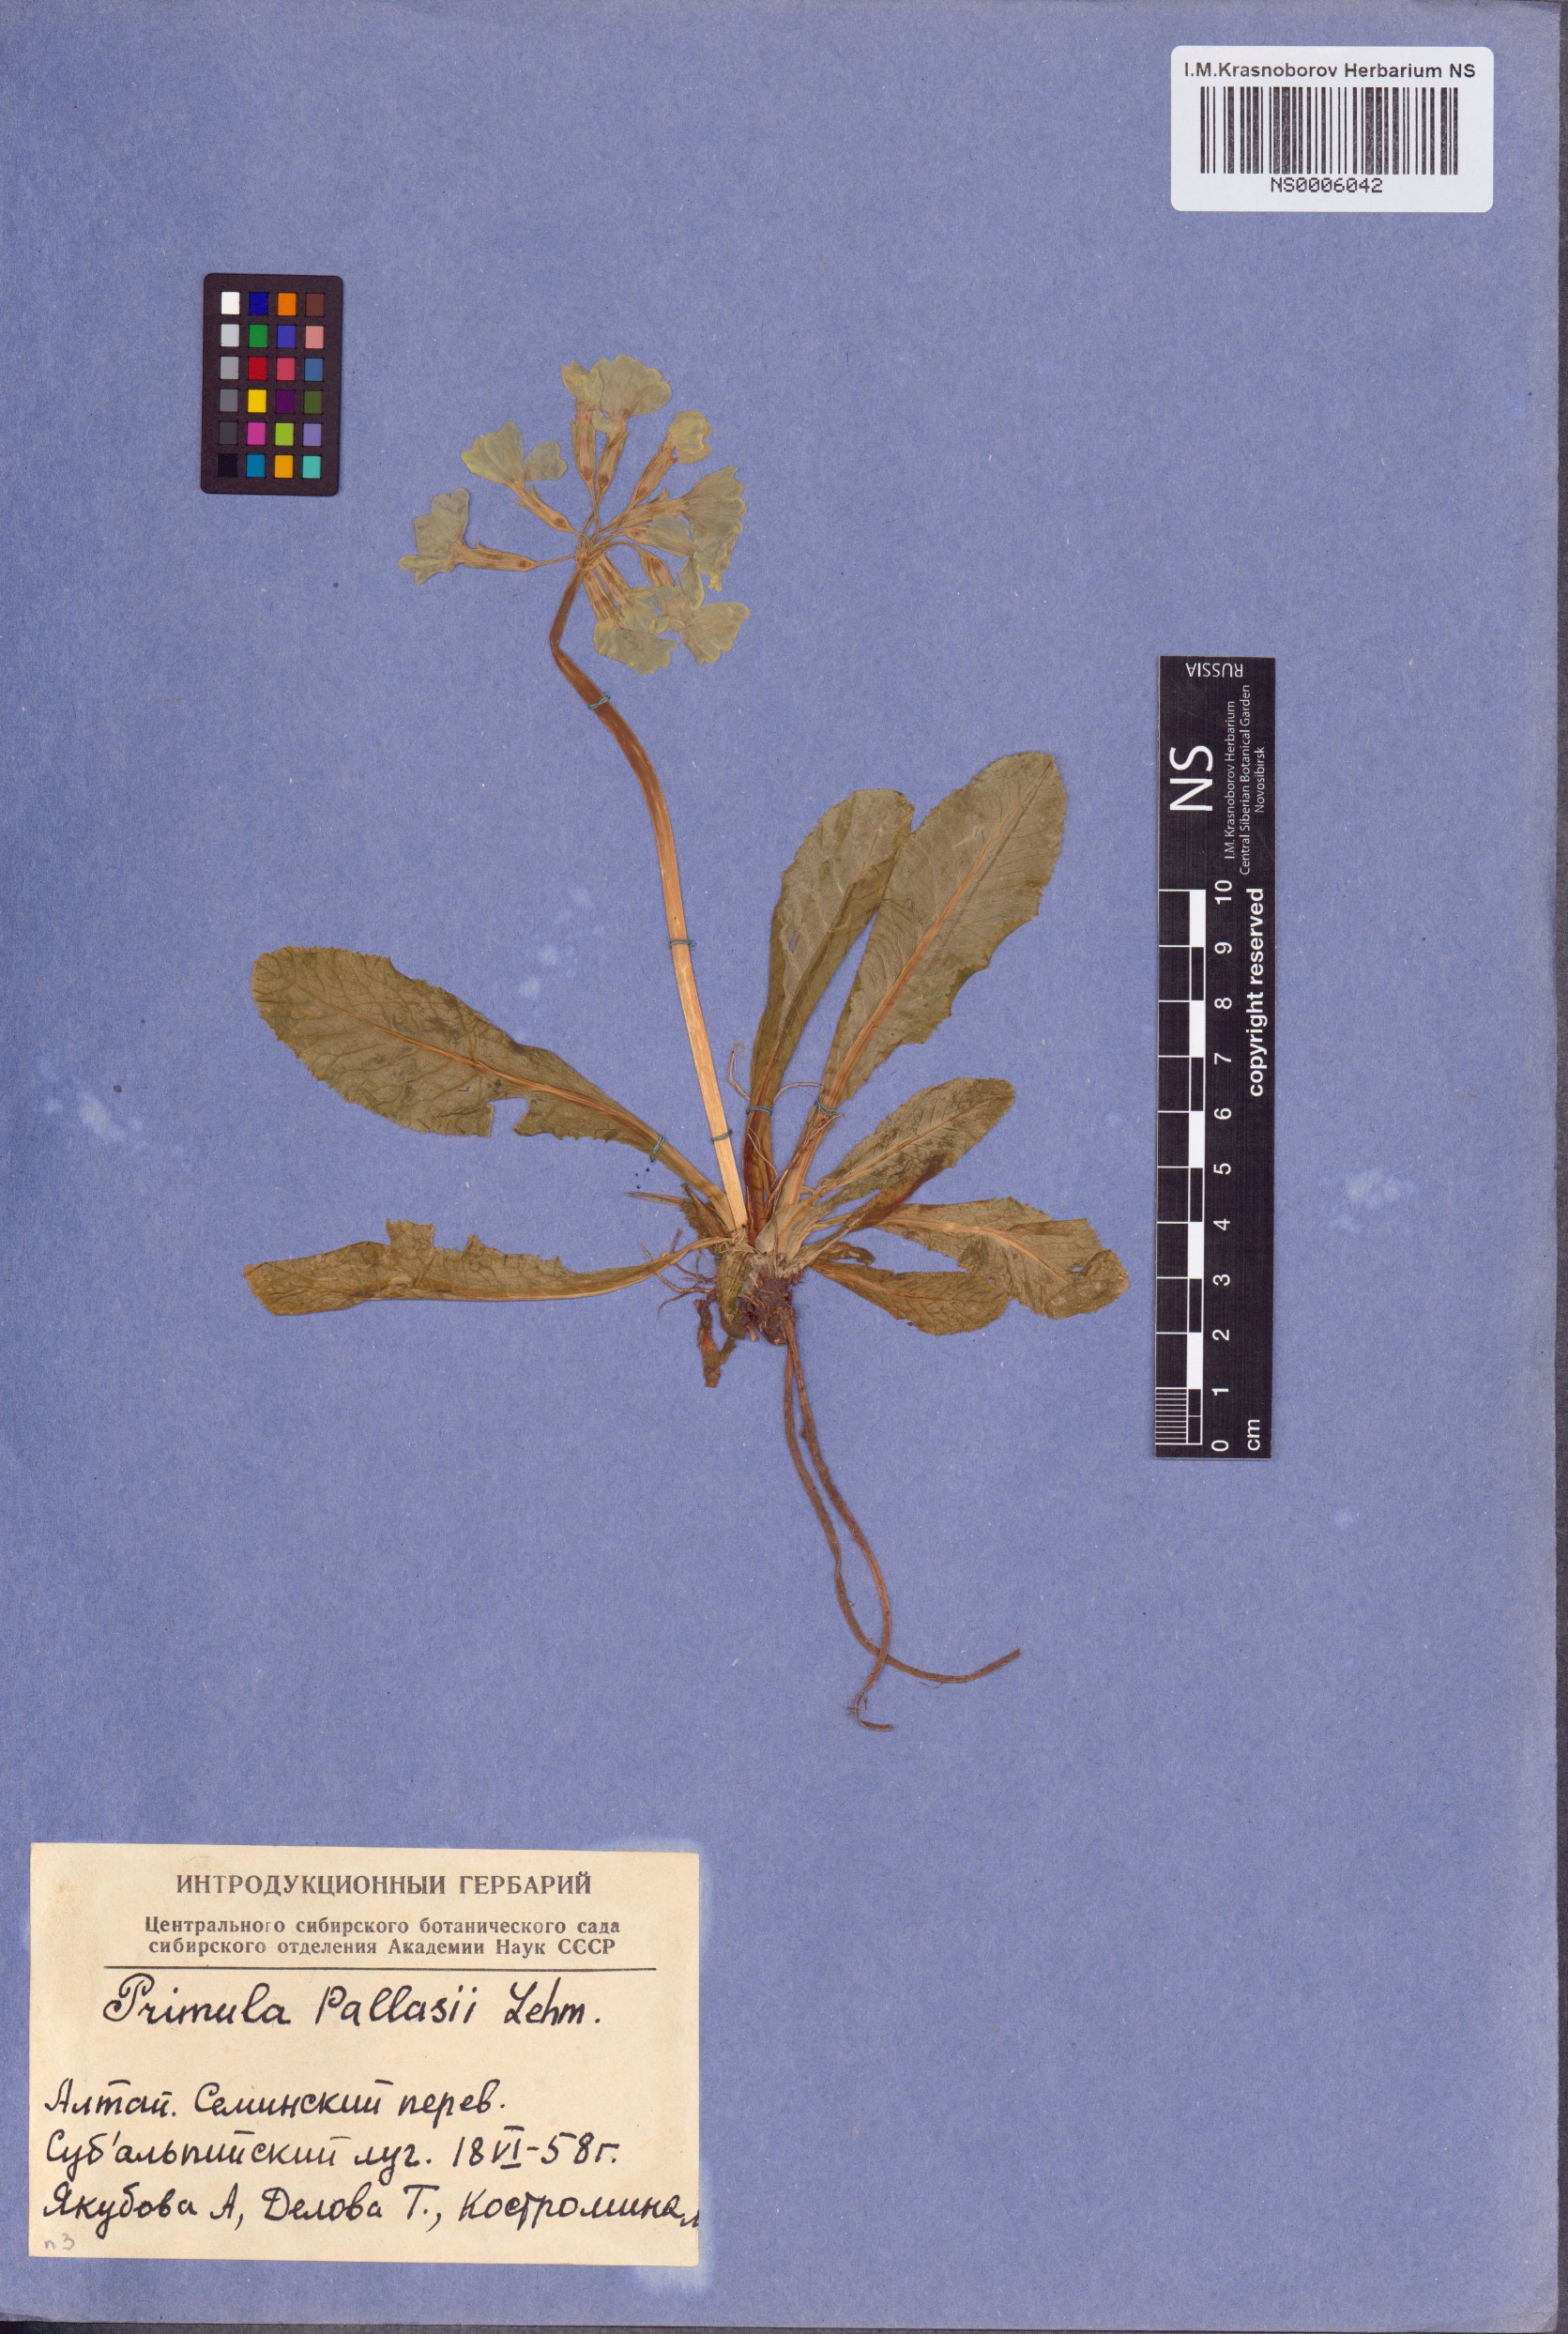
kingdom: Plantae
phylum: Tracheophyta
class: Magnoliopsida
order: Ericales
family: Primulaceae
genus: Primula
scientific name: Primula elatior
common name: Oxlip
